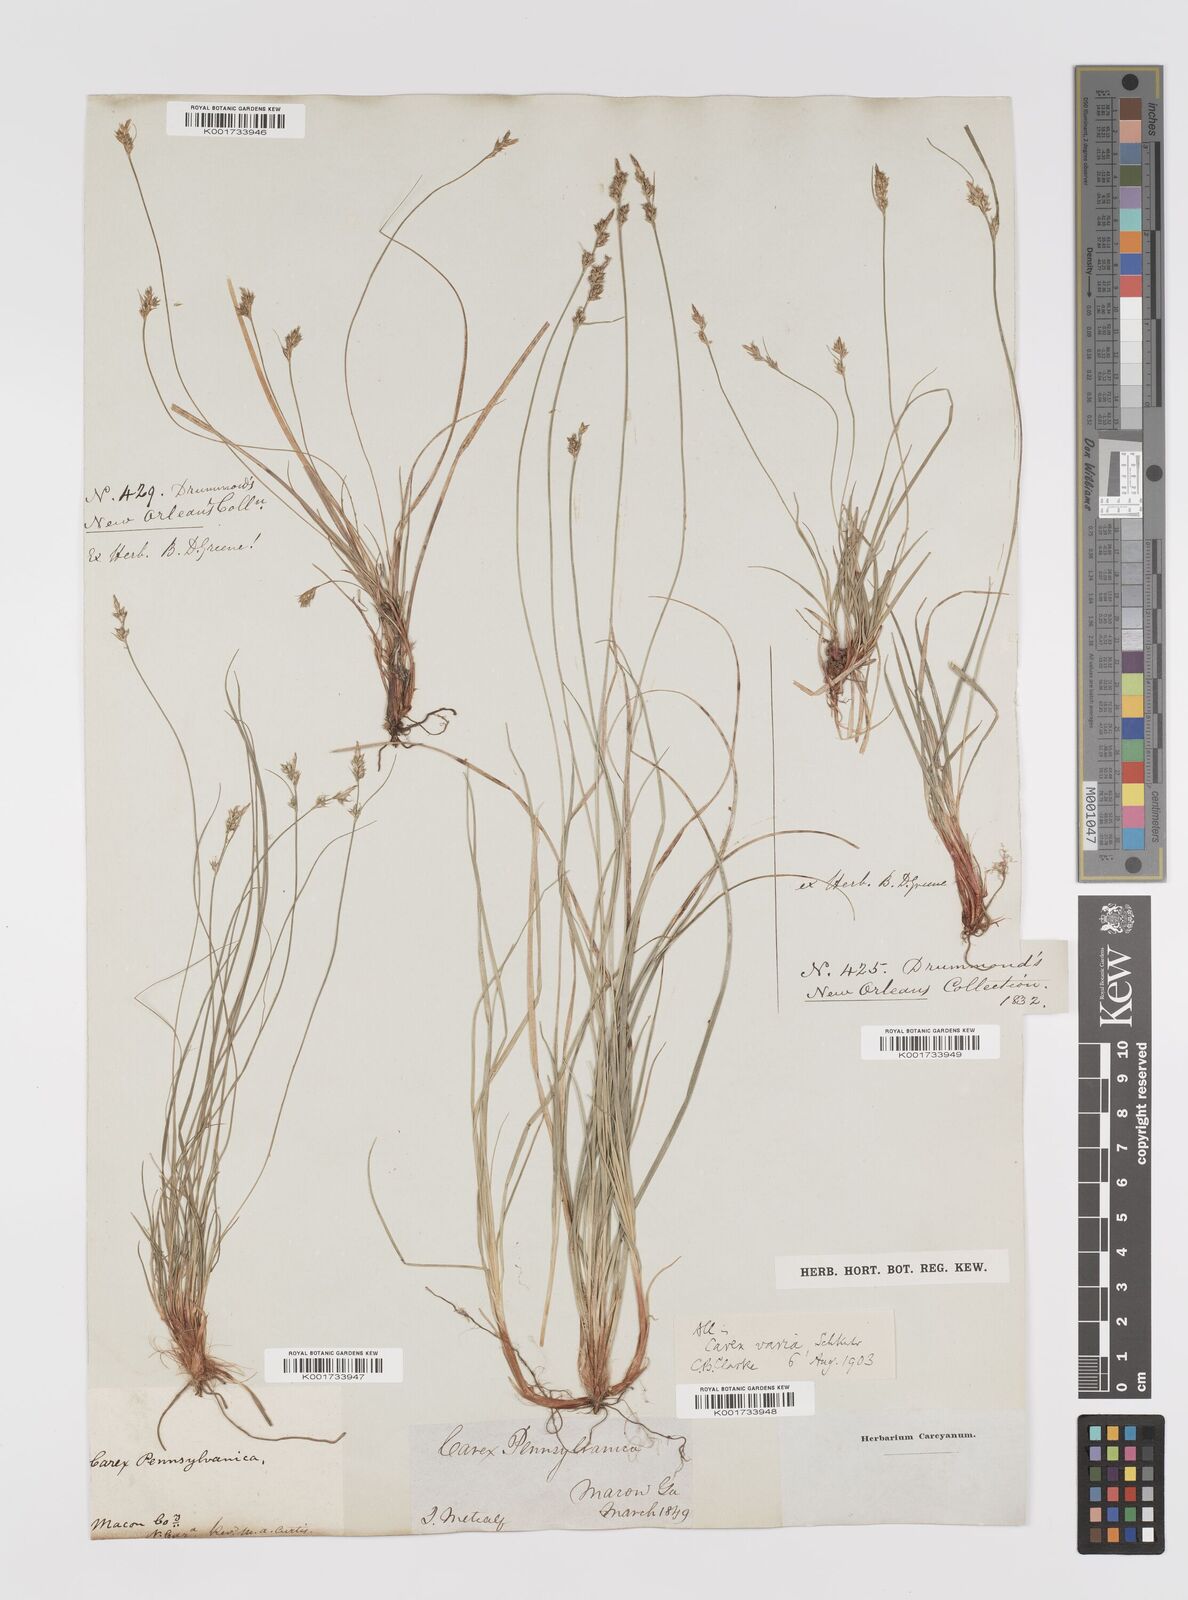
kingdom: Plantae
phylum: Tracheophyta
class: Liliopsida
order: Poales
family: Cyperaceae
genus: Carex
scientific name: Carex albicans
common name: Bellow-beaked sedge
